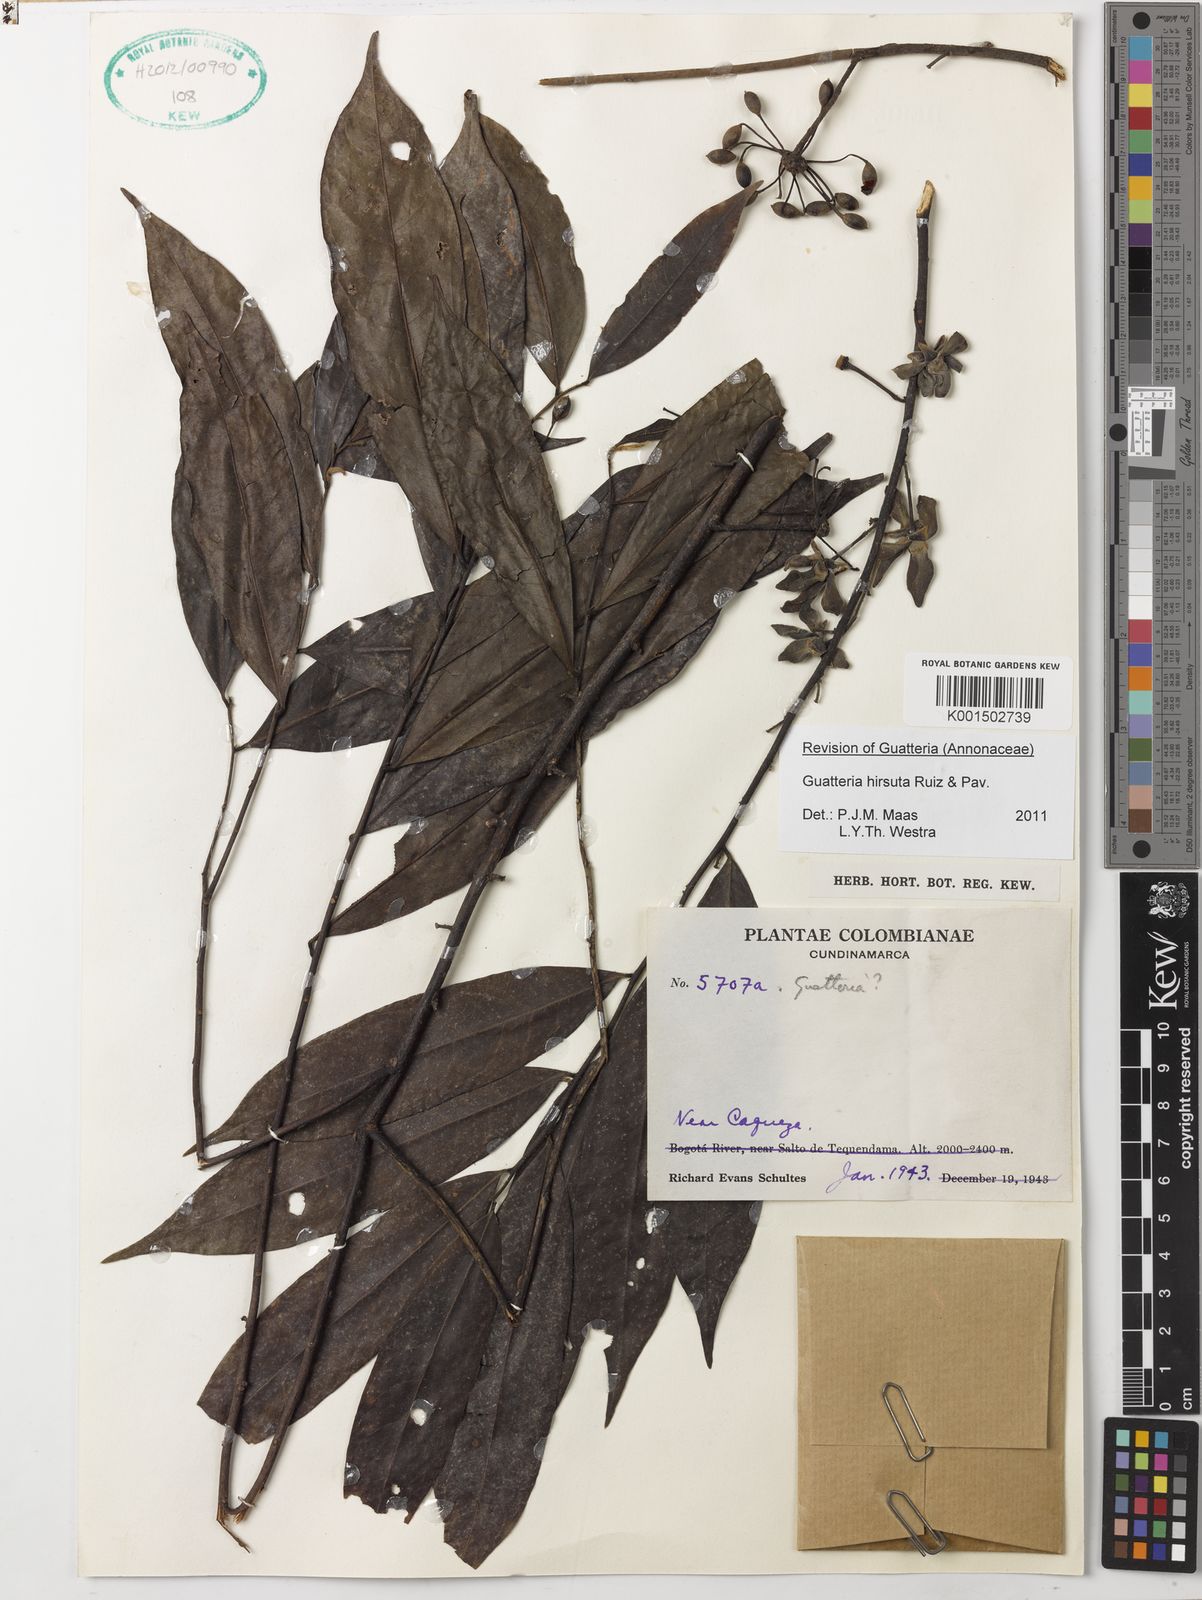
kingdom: Plantae
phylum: Tracheophyta
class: Magnoliopsida
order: Magnoliales
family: Annonaceae
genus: Guatteria
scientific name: Guatteria hirsuta
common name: Laurel
